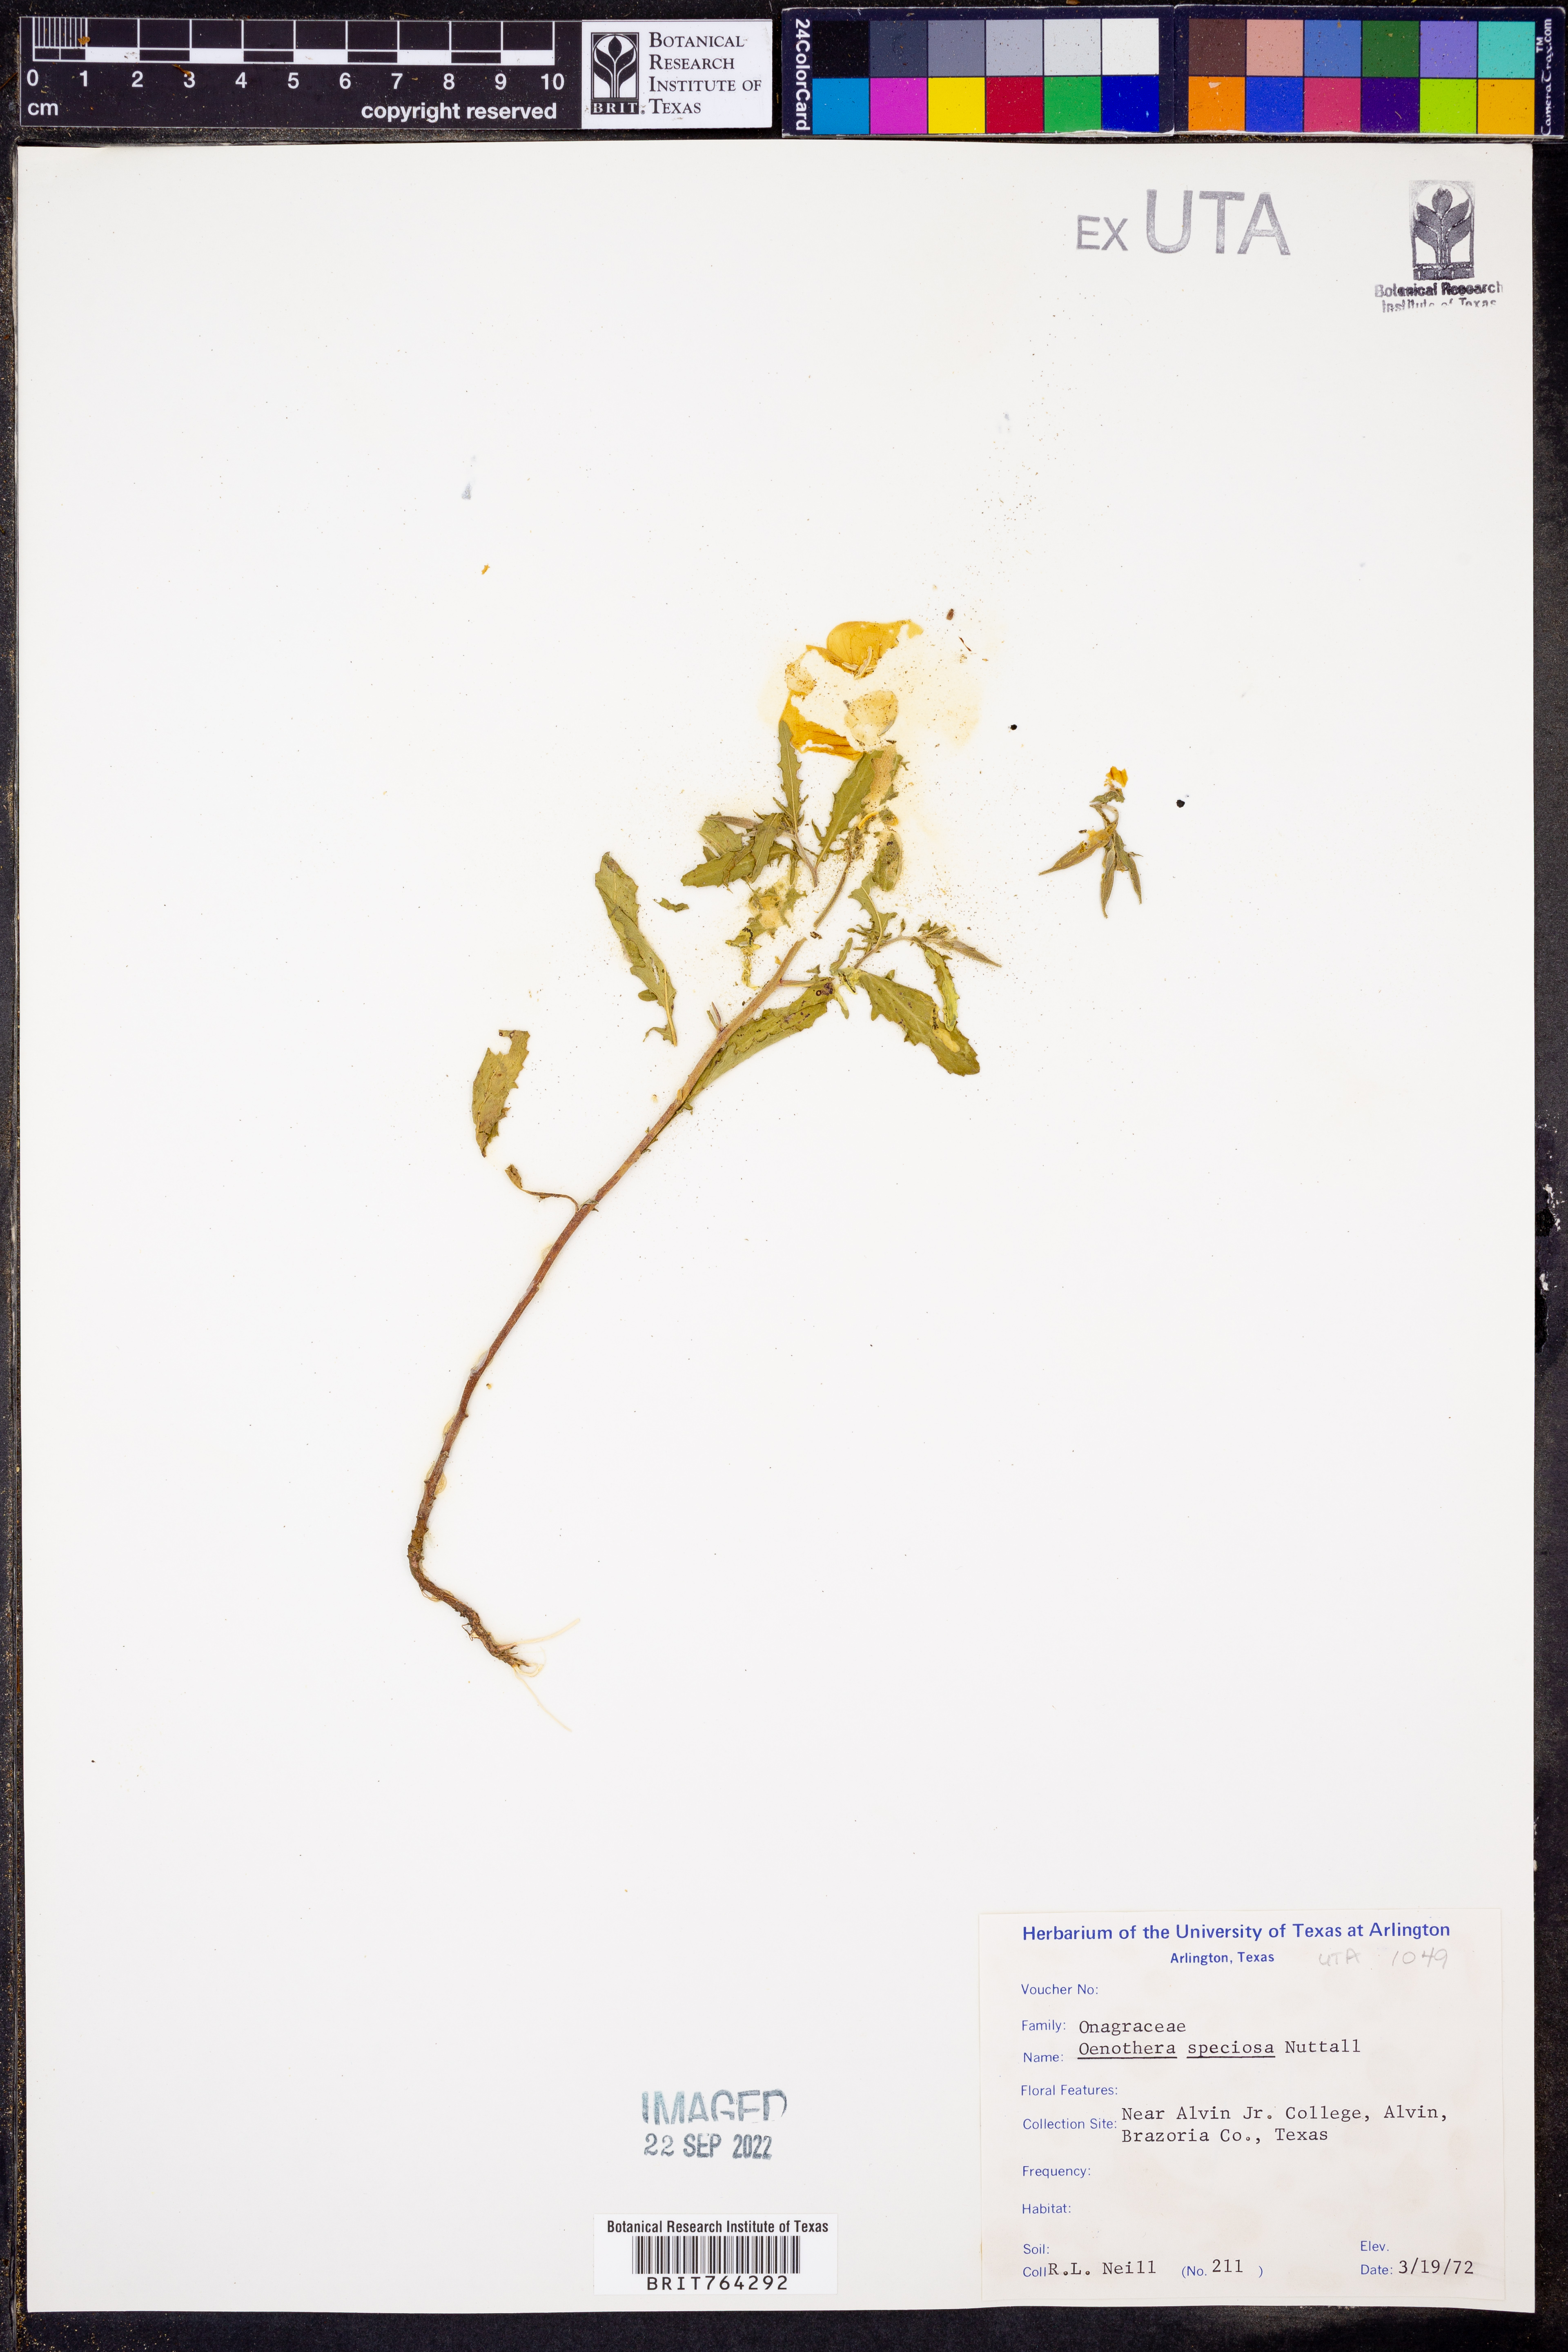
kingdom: Plantae
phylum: Tracheophyta
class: Magnoliopsida
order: Myrtales
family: Onagraceae
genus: Oenothera
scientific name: Oenothera speciosa
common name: White evening-primrose
